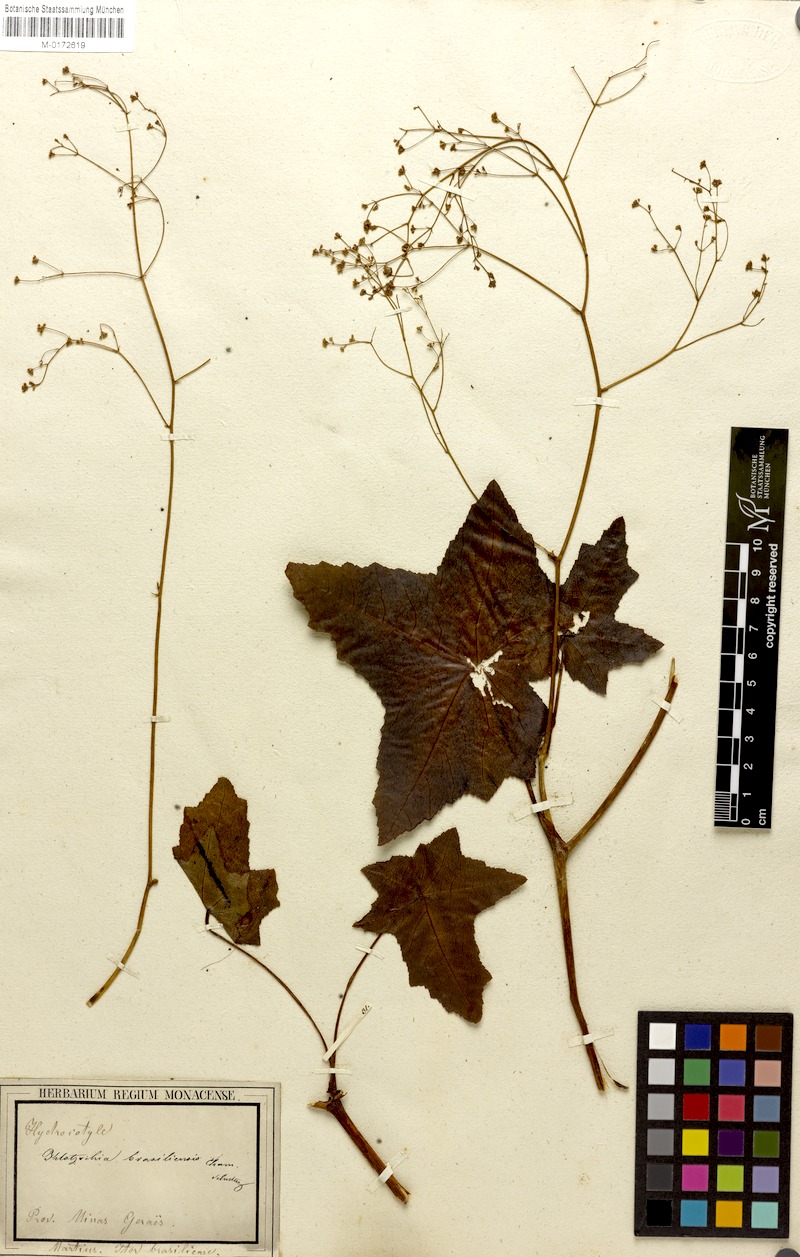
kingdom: Plantae
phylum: Tracheophyta
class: Magnoliopsida
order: Apiales
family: Apiaceae
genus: Klotzschia
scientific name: Klotzschia brasiliensis
